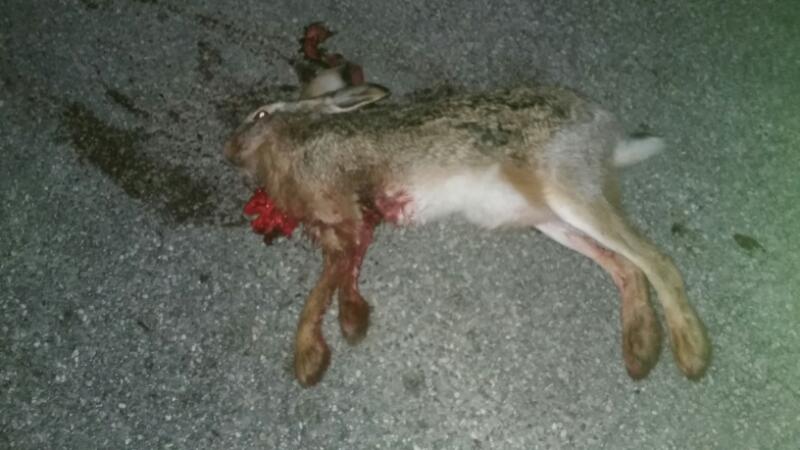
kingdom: Animalia
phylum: Chordata
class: Mammalia
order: Lagomorpha
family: Leporidae
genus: Lepus
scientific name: Lepus europaeus
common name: European hare
